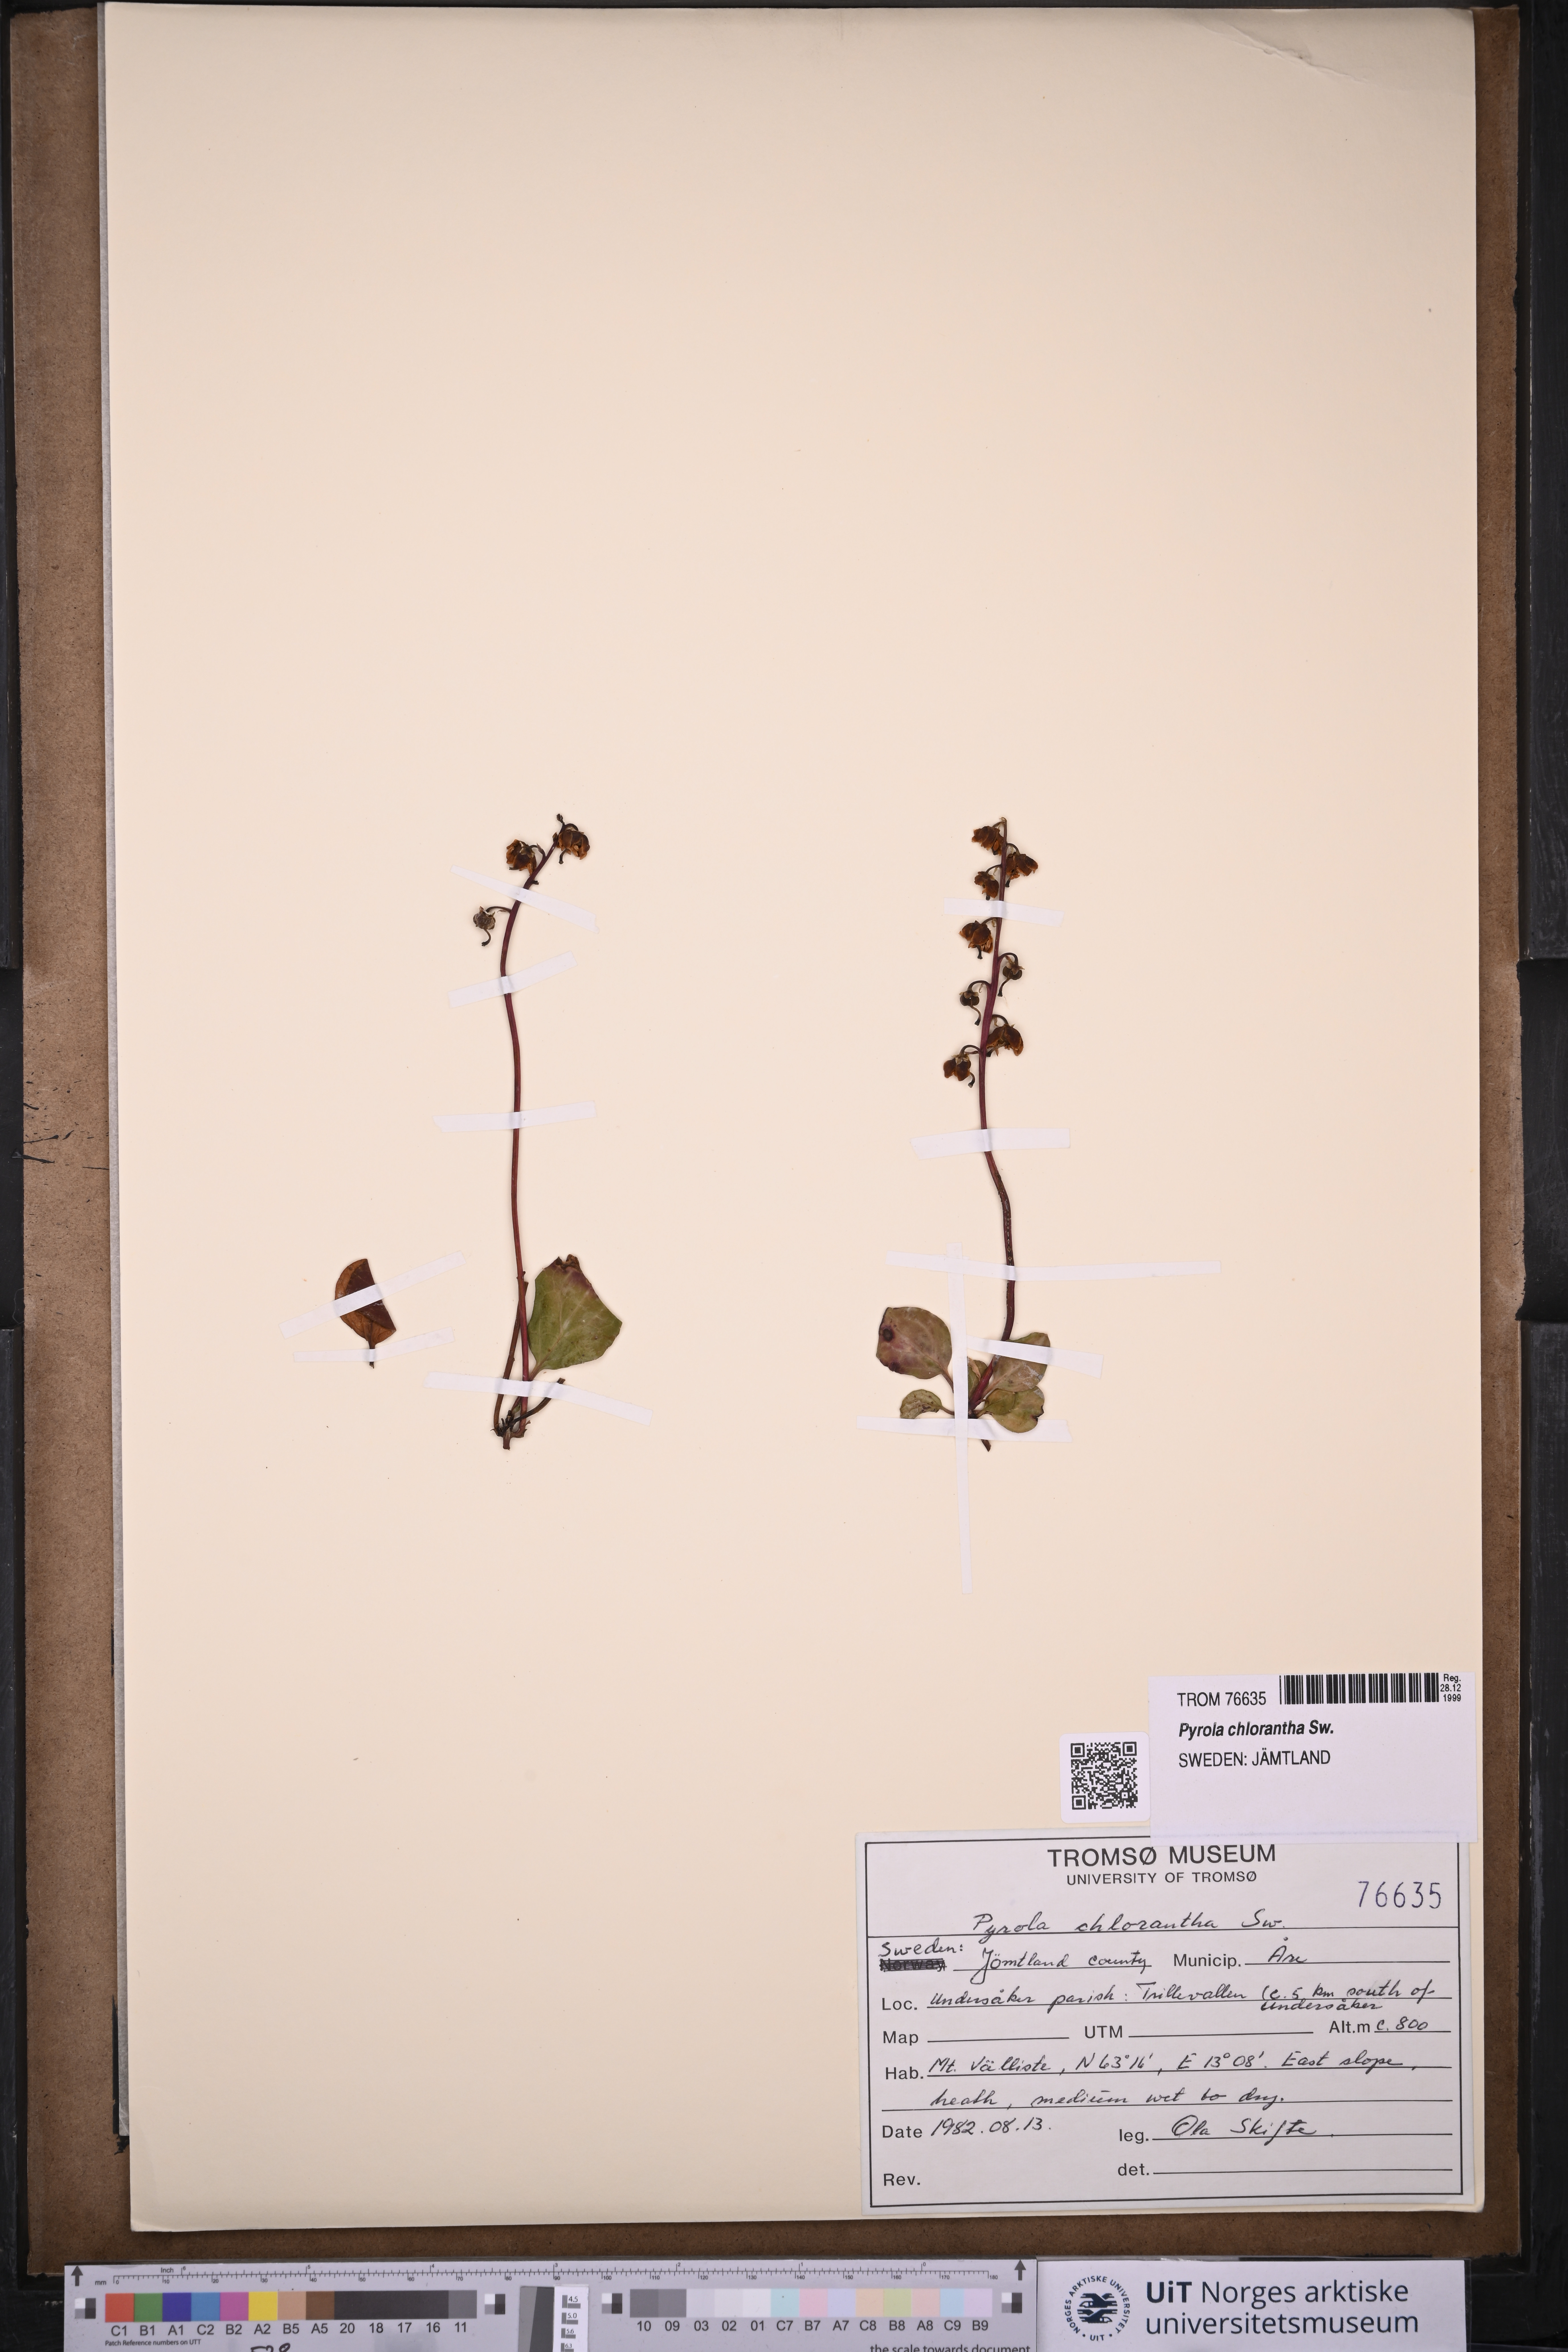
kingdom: Plantae
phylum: Tracheophyta
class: Magnoliopsida
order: Ericales
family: Ericaceae
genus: Pyrola
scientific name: Pyrola chlorantha
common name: Green wintergreen
